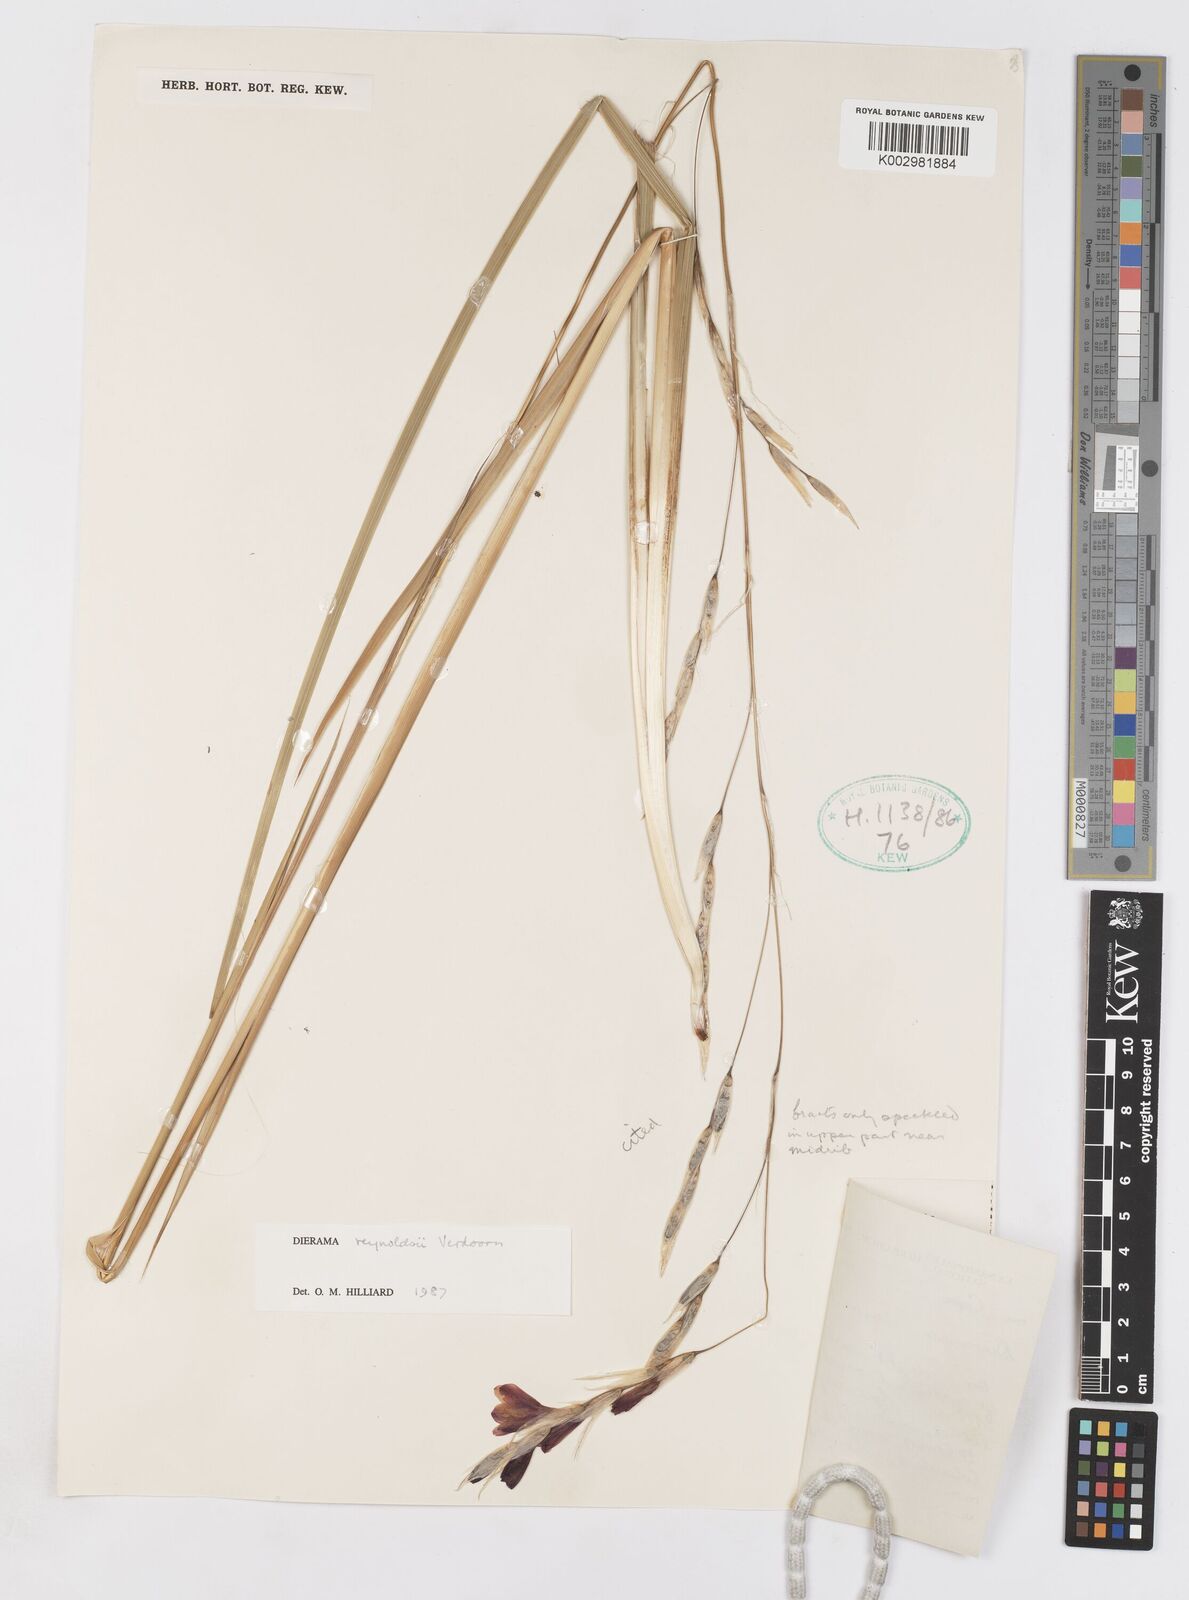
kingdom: Plantae
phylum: Tracheophyta
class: Liliopsida
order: Asparagales
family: Iridaceae
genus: Dierama
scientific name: Dierama reynoldsii
